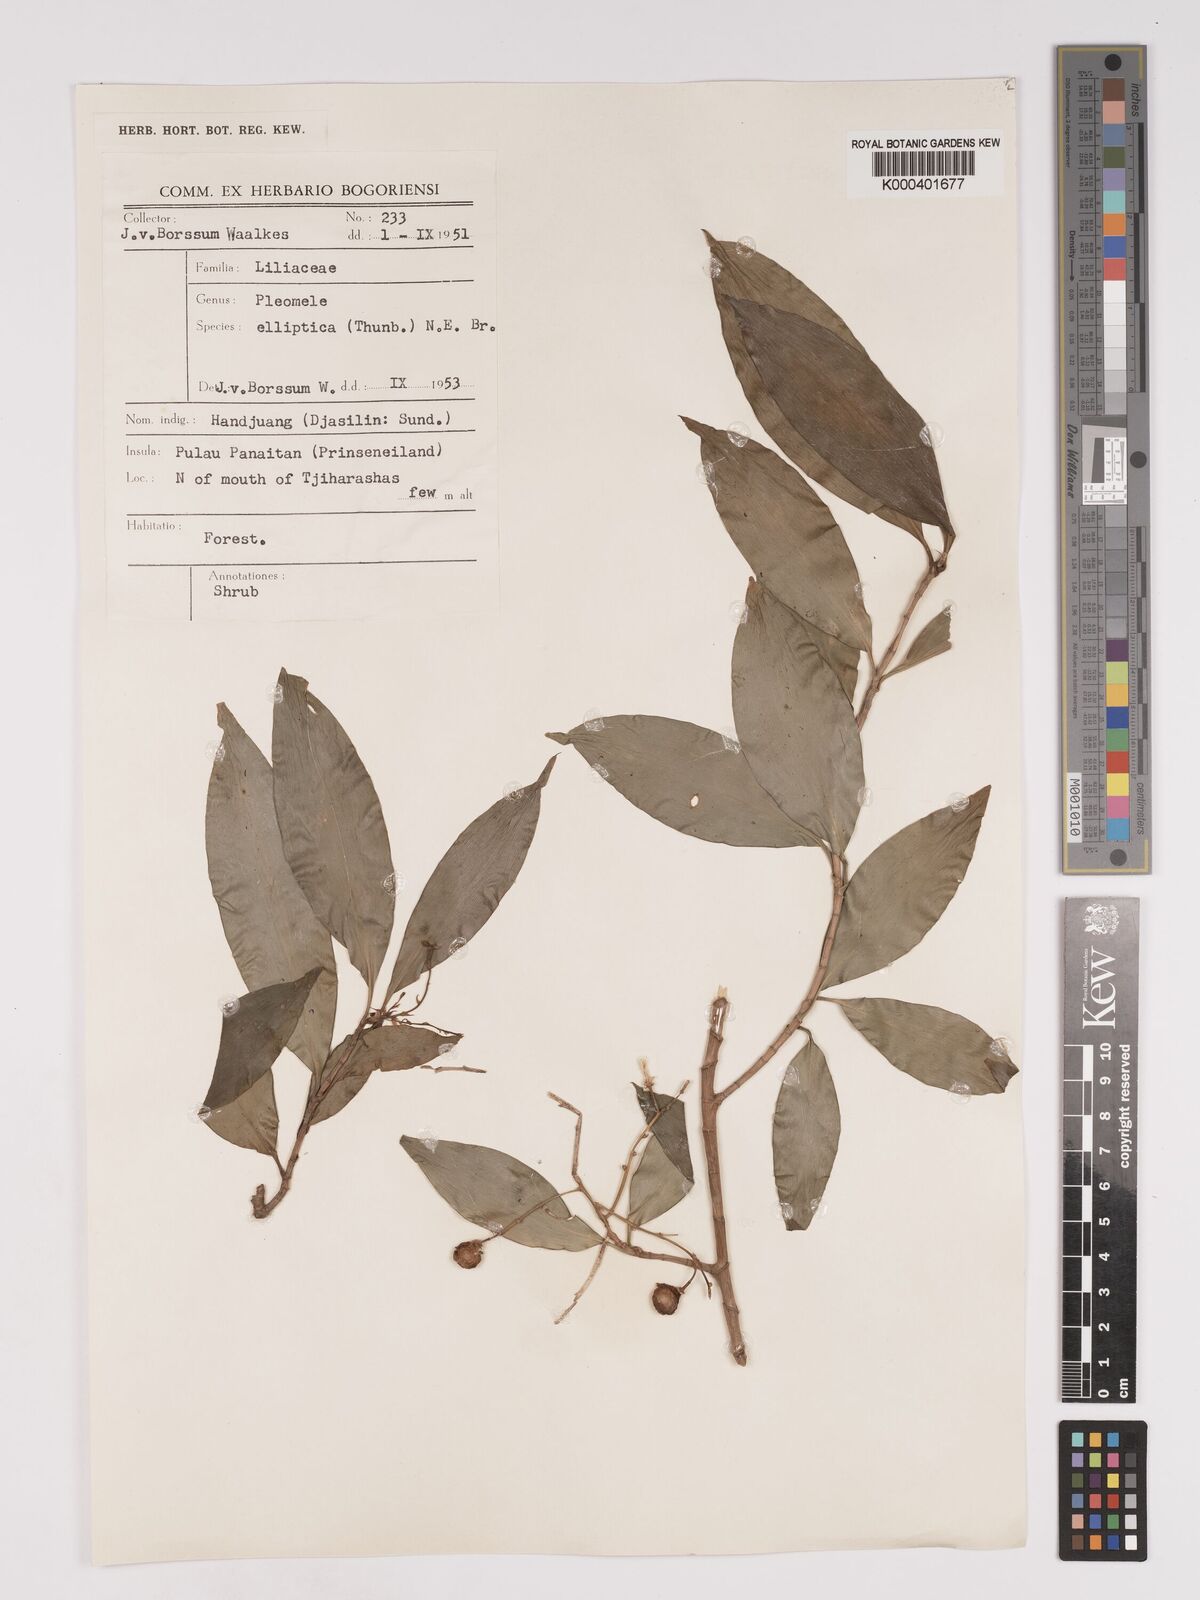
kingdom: Plantae
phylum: Tracheophyta
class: Liliopsida
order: Asparagales
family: Asparagaceae
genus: Dracaena
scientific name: Dracaena elliptica
